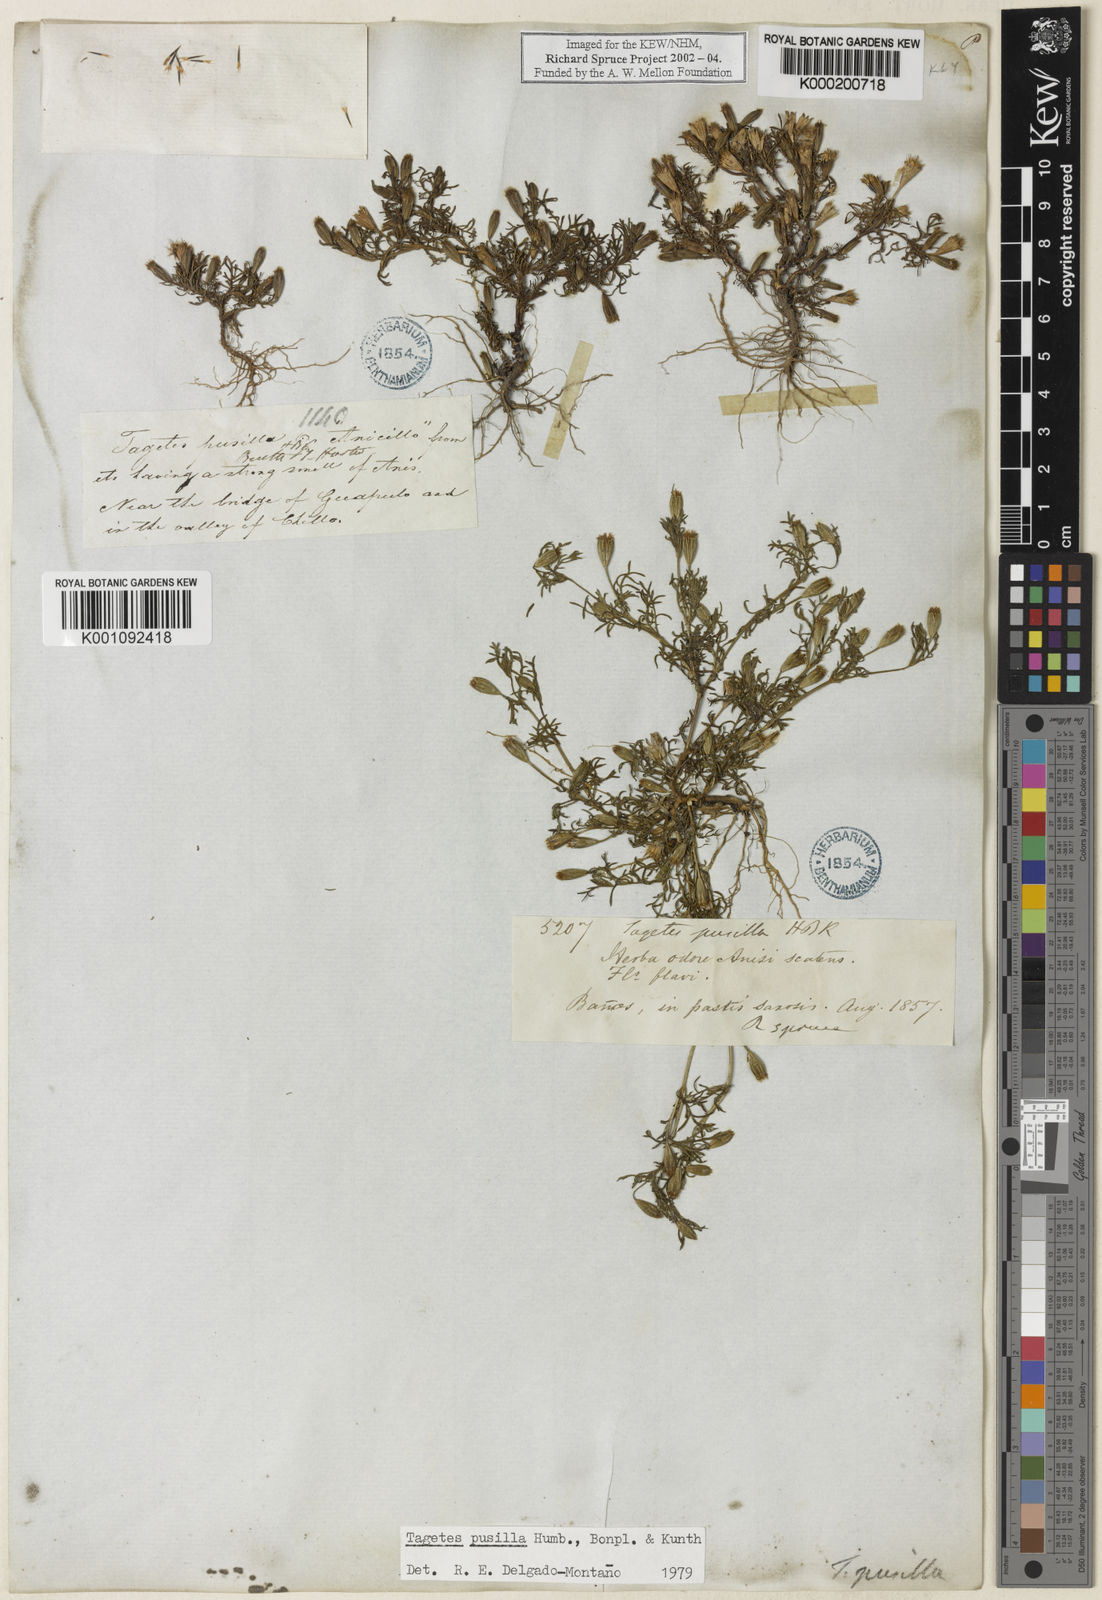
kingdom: Plantae
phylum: Tracheophyta
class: Magnoliopsida
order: Asterales
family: Asteraceae
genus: Tagetes
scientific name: Tagetes
